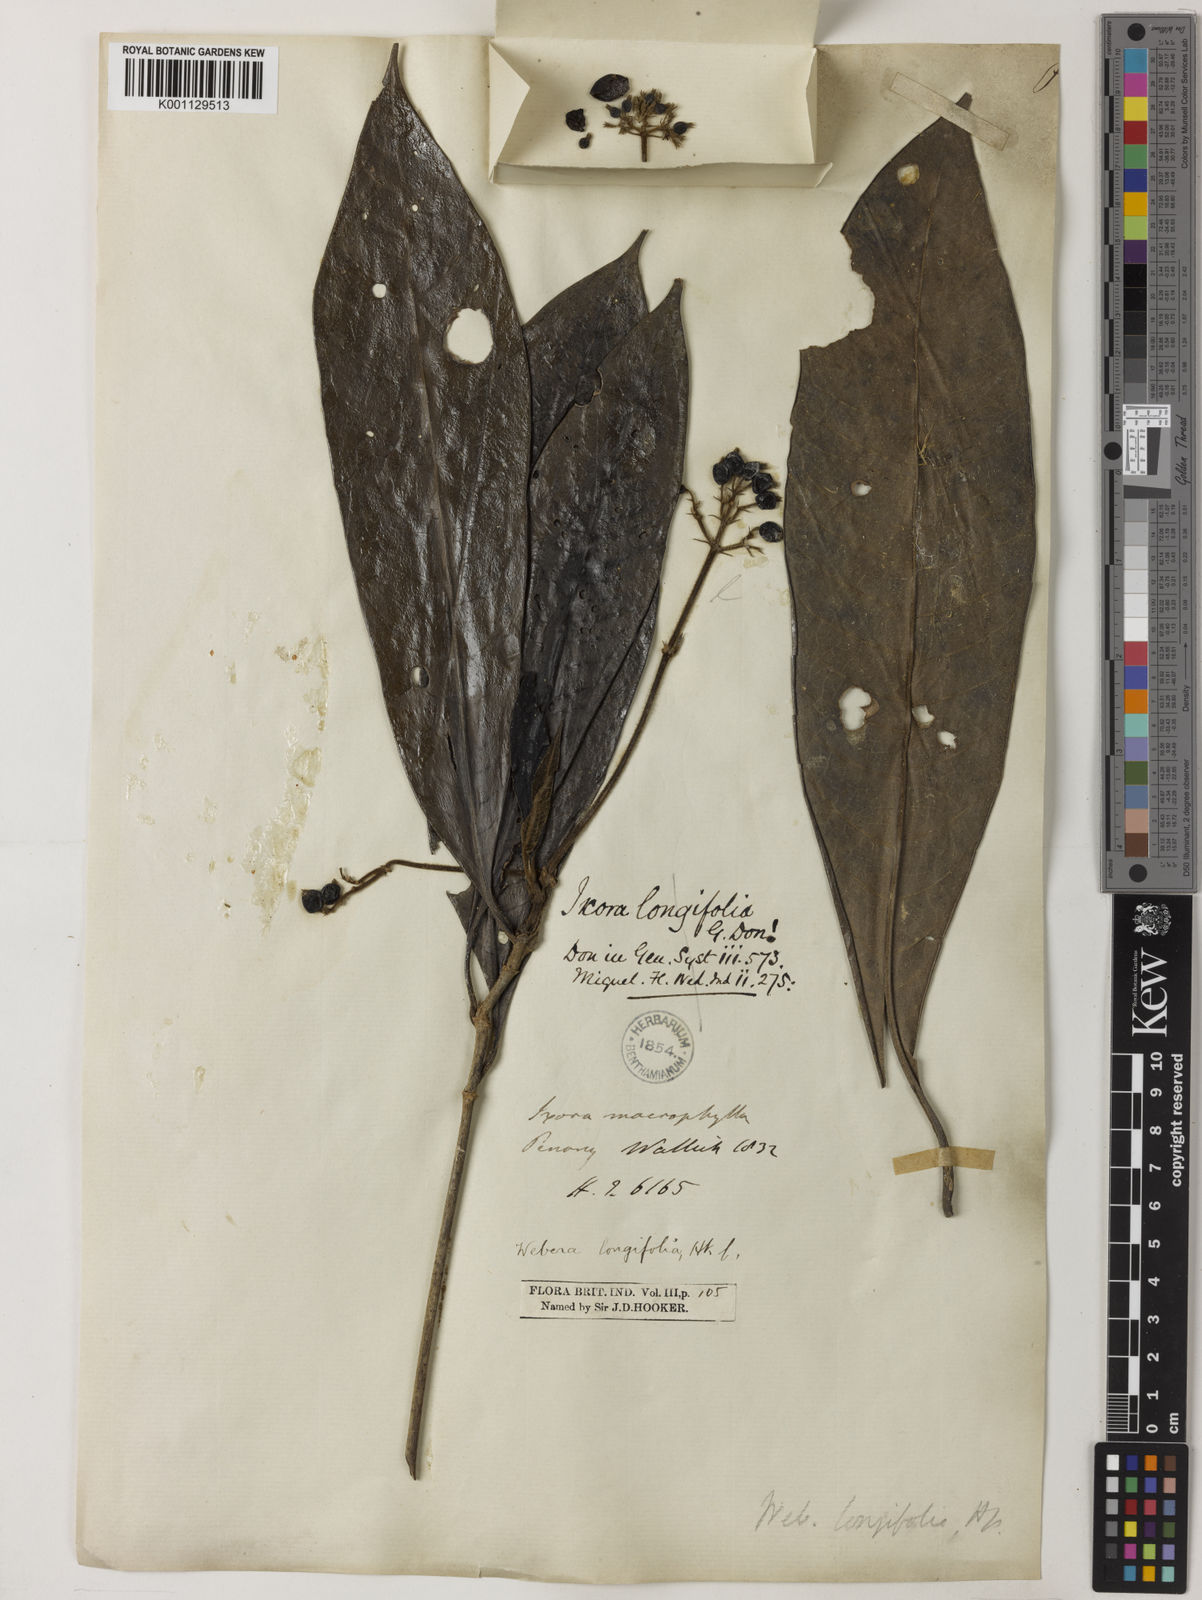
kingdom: Plantae
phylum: Tracheophyta
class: Magnoliopsida
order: Gentianales
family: Rubiaceae
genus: Tarenna
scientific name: Tarenna longifolia
